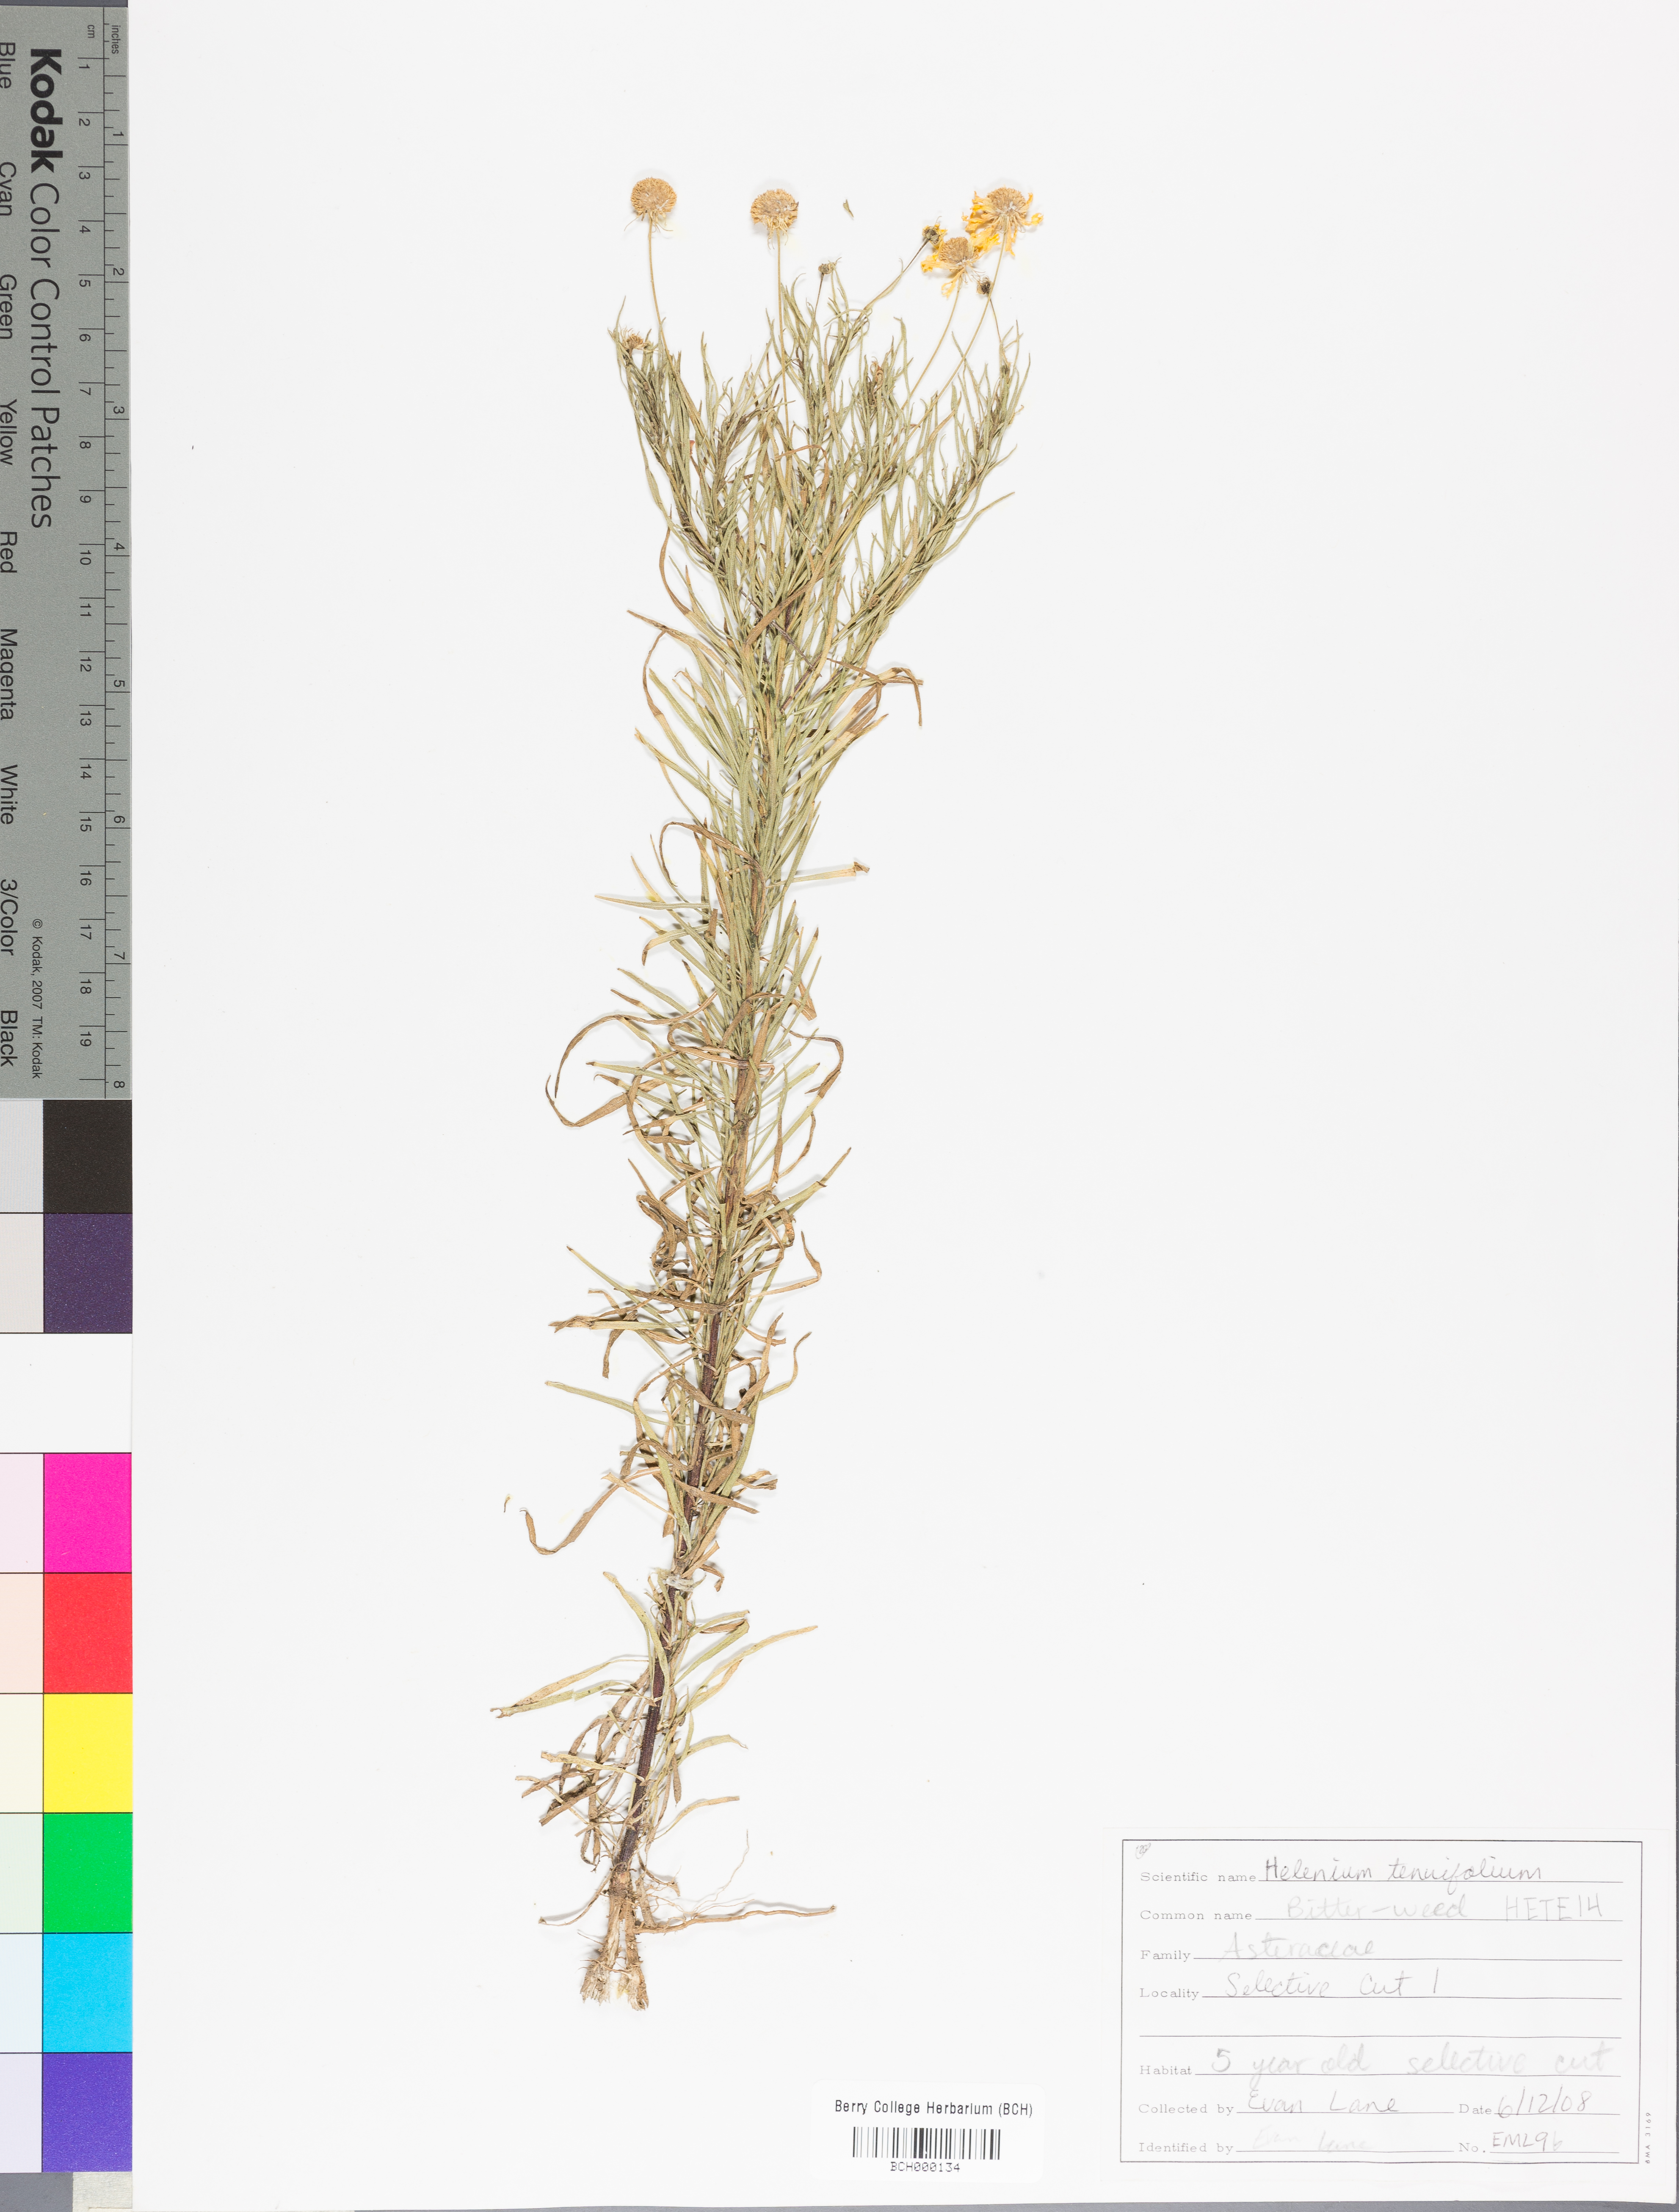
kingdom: Plantae
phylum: Tracheophyta
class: Magnoliopsida
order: Asterales
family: Asteraceae
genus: Helenium
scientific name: Helenium amarum
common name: Bitter sneezeweed
